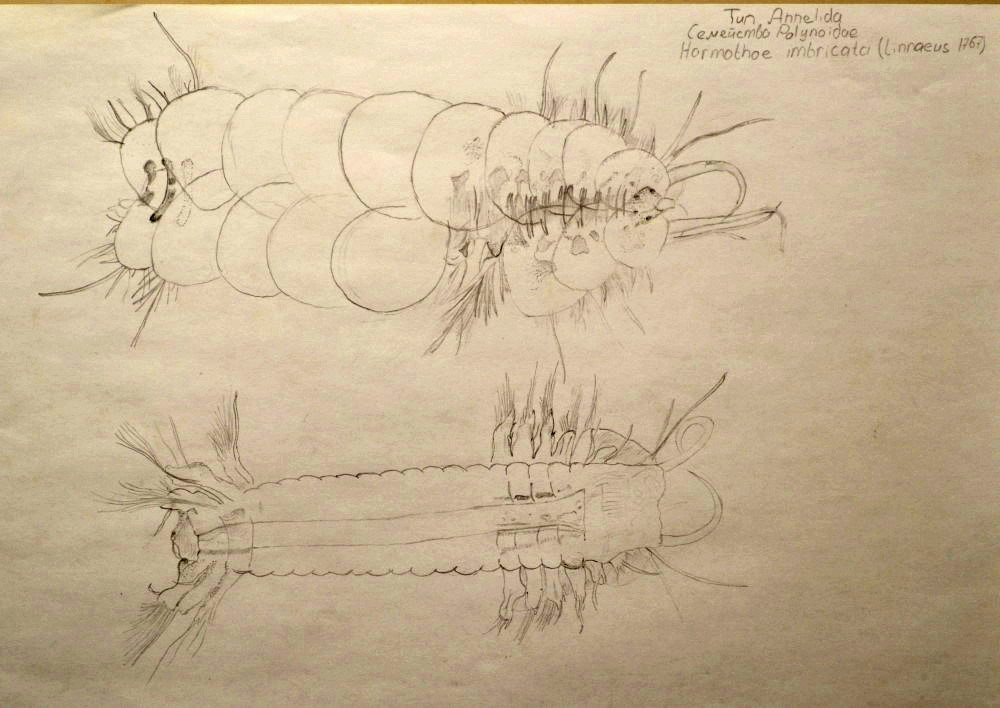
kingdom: Animalia
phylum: Annelida
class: Polychaeta
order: Phyllodocida
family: Polynoidae
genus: Harmothoe
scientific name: Harmothoe imbricata
